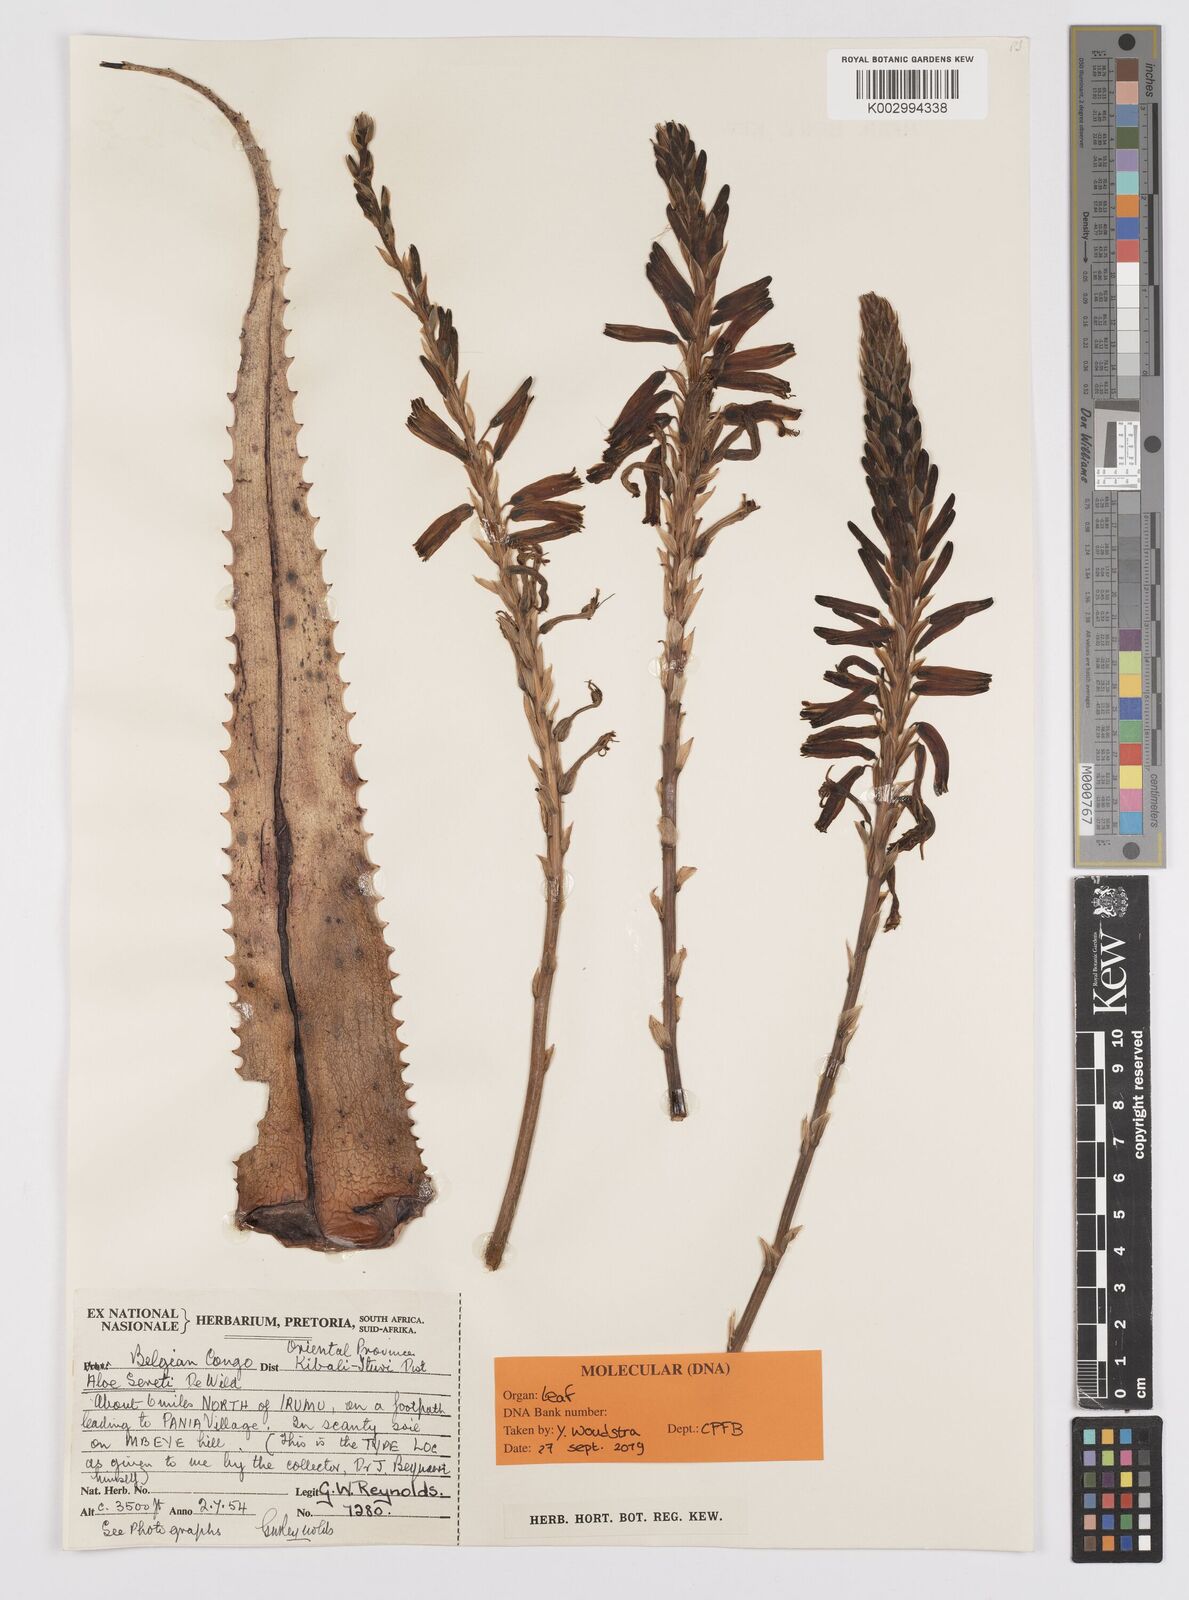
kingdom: Plantae
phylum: Tracheophyta
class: Liliopsida
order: Asparagales
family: Asphodelaceae
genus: Aloe
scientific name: Aloe seretii
